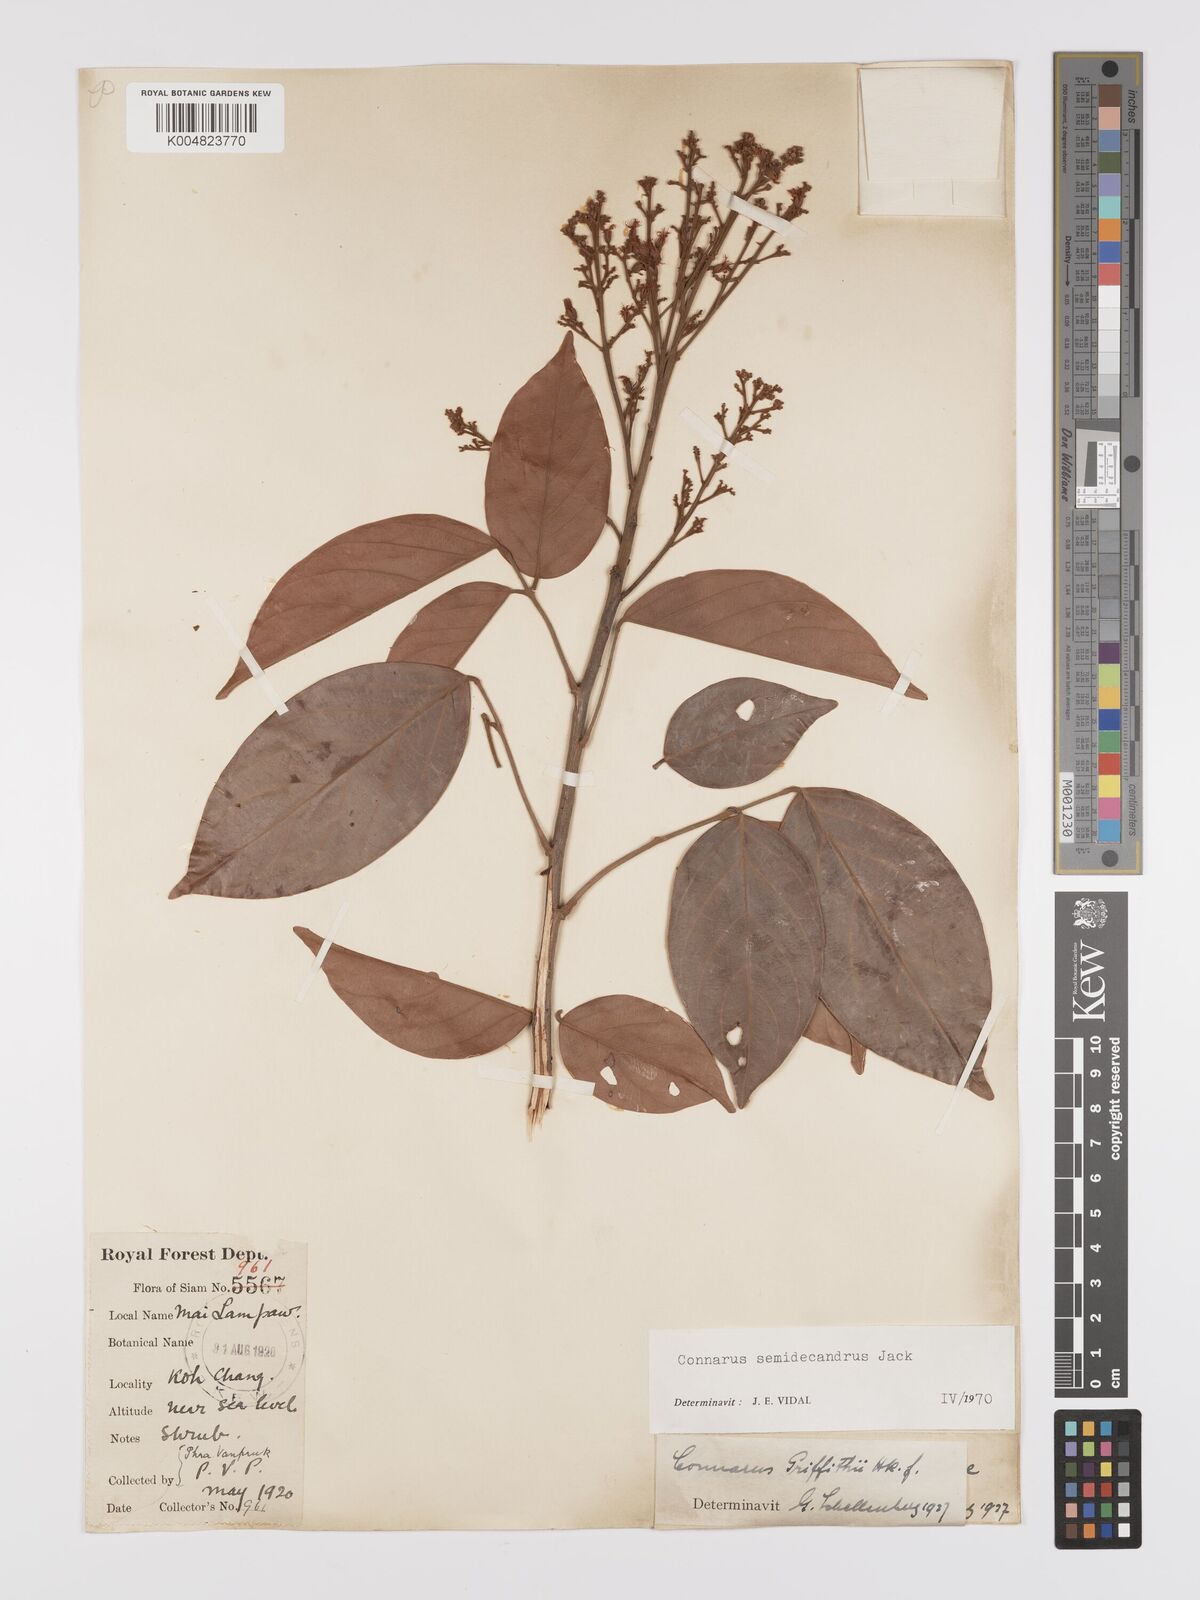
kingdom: Plantae
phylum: Tracheophyta
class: Magnoliopsida
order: Oxalidales
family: Connaraceae
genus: Connarus
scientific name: Connarus semidecandrus
